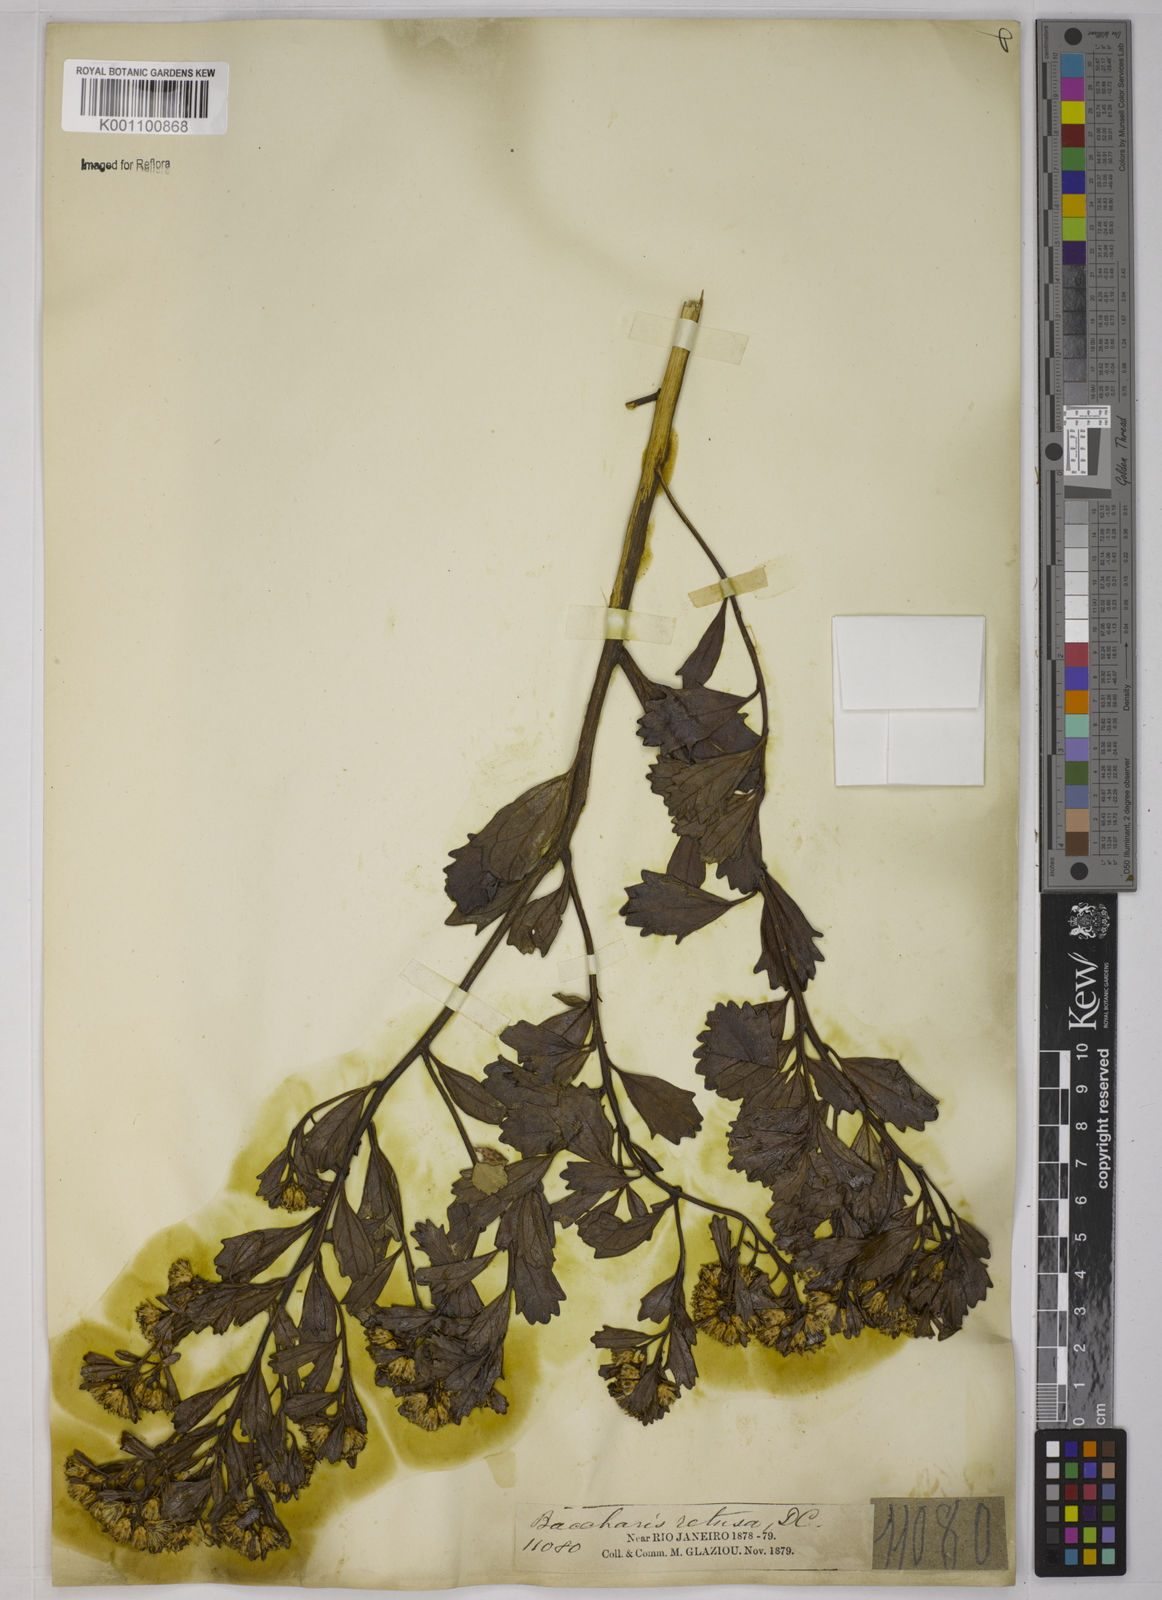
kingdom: Plantae
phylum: Tracheophyta
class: Magnoliopsida
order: Asterales
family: Asteraceae
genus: Baccharis
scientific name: Baccharis retusa
